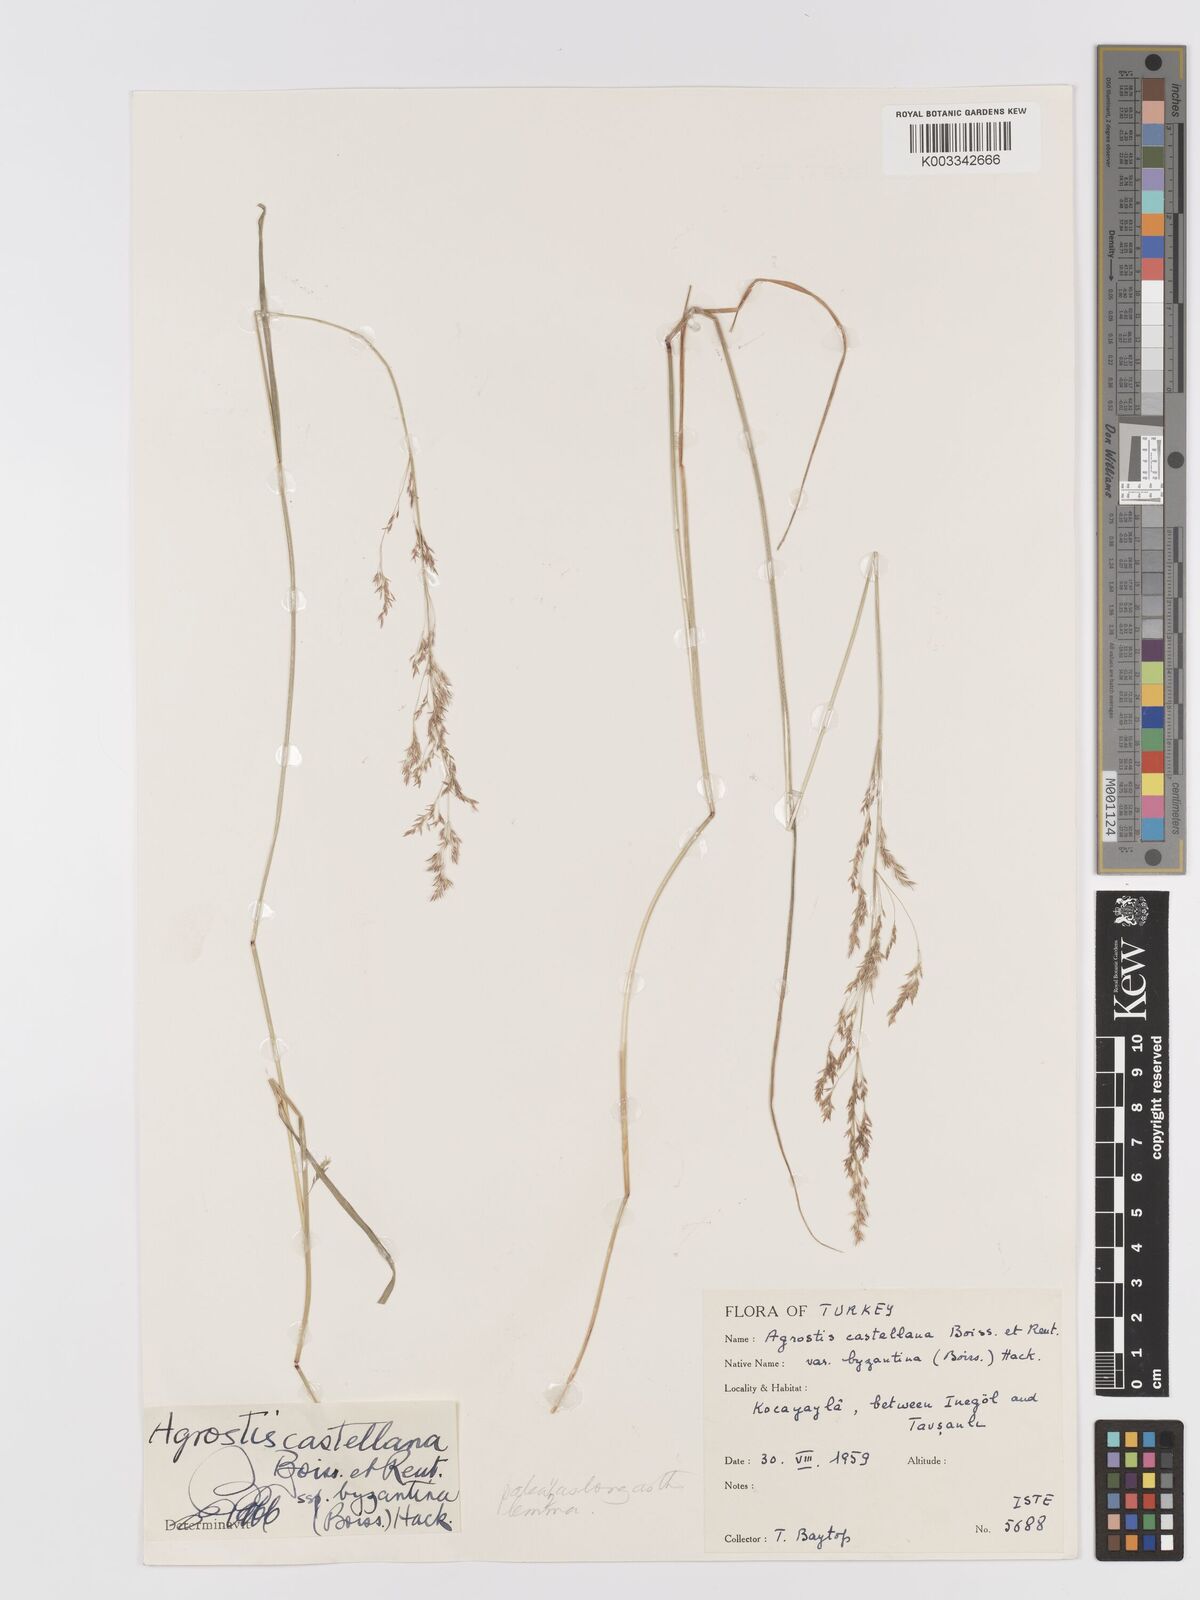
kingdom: Plantae
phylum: Tracheophyta
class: Liliopsida
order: Poales
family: Poaceae
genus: Agrostis
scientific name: Agrostis castellana
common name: Highland bent
